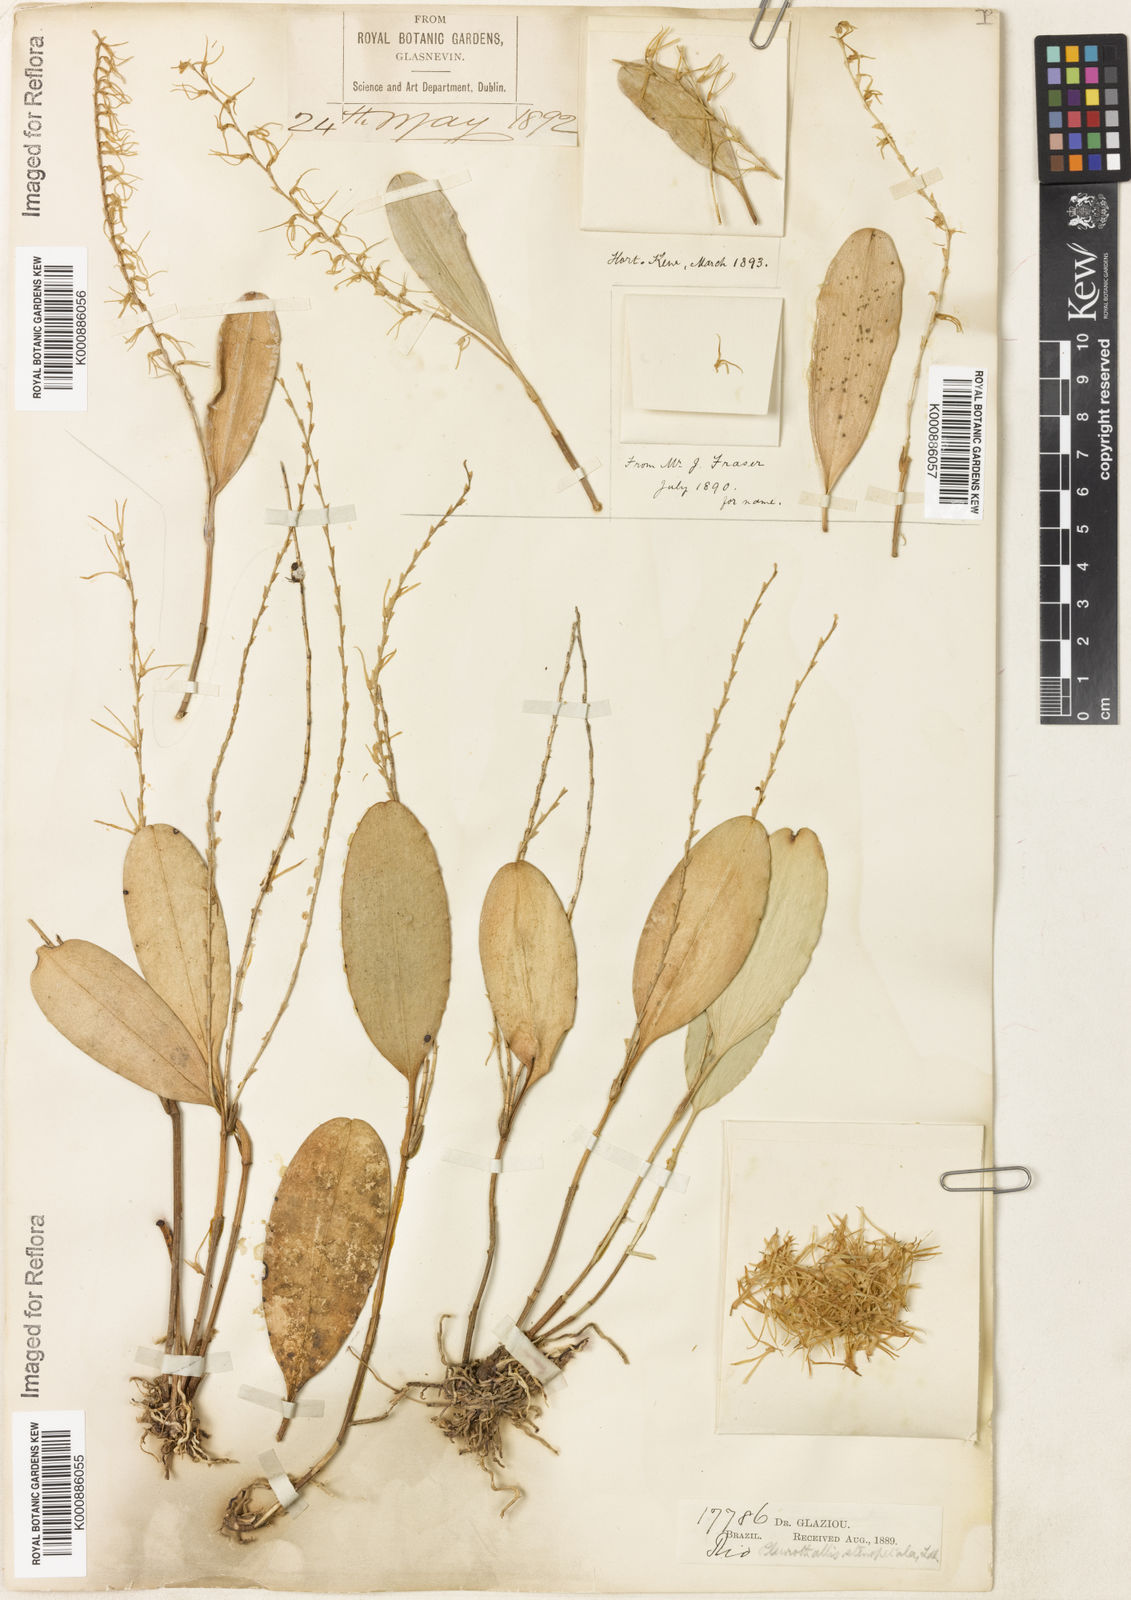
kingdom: Plantae
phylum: Tracheophyta
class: Liliopsida
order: Asparagales
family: Orchidaceae
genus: Stelis
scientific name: Stelis sclerophylla
